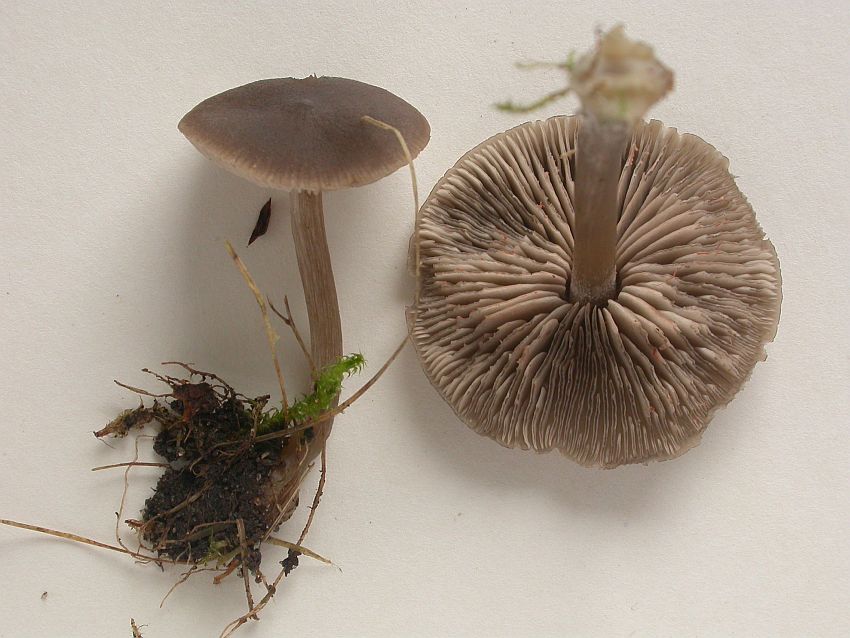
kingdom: Fungi
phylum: Basidiomycota
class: Agaricomycetes
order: Agaricales
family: Entolomataceae
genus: Entoloma
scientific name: Entoloma sericeum
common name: silkeglinsende rødblad
